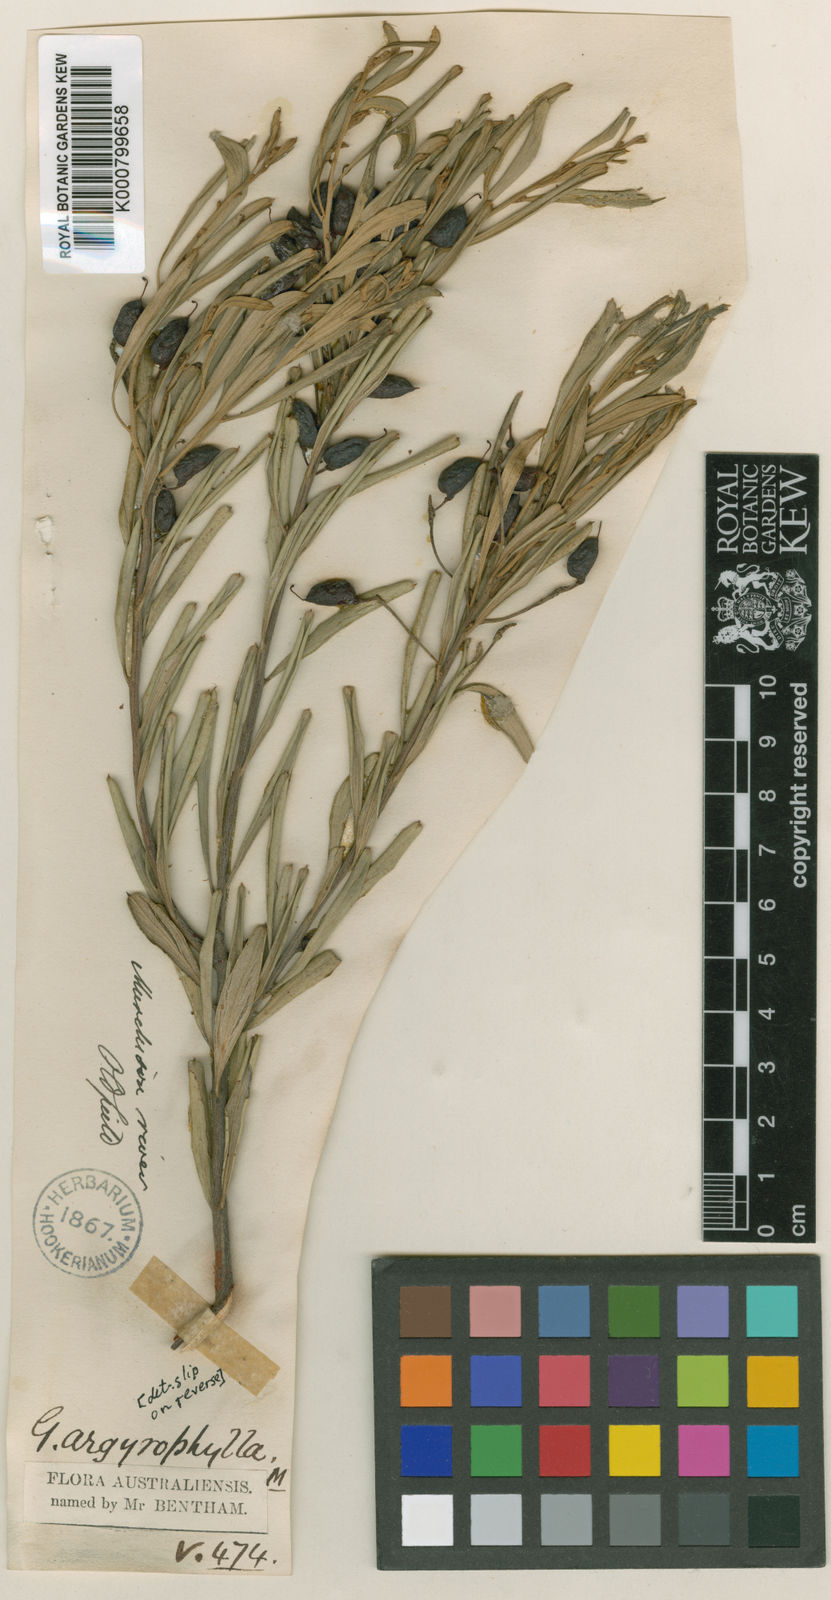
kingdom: Plantae
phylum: Tracheophyta
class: Magnoliopsida
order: Proteales
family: Proteaceae
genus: Grevillea
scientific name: Grevillea argyrophylla
